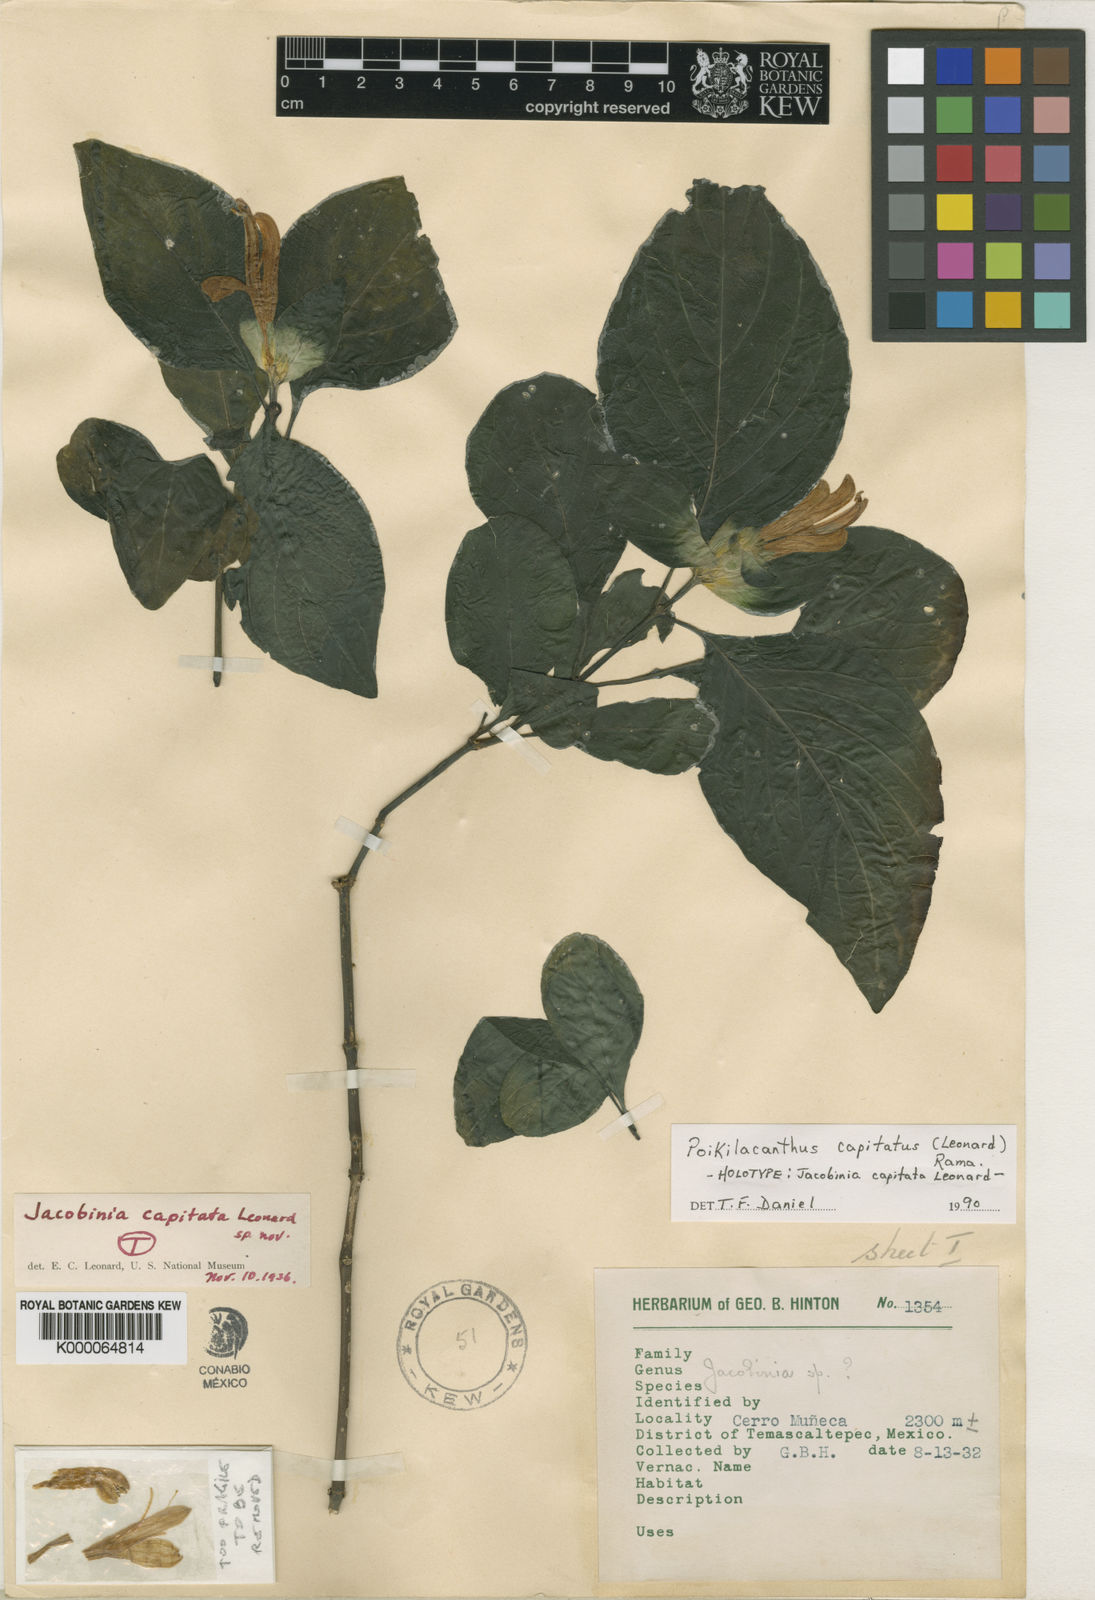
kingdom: Plantae
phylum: Tracheophyta
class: Magnoliopsida
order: Lamiales
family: Acanthaceae
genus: Poikilacanthus
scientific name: Poikilacanthus capitatus
